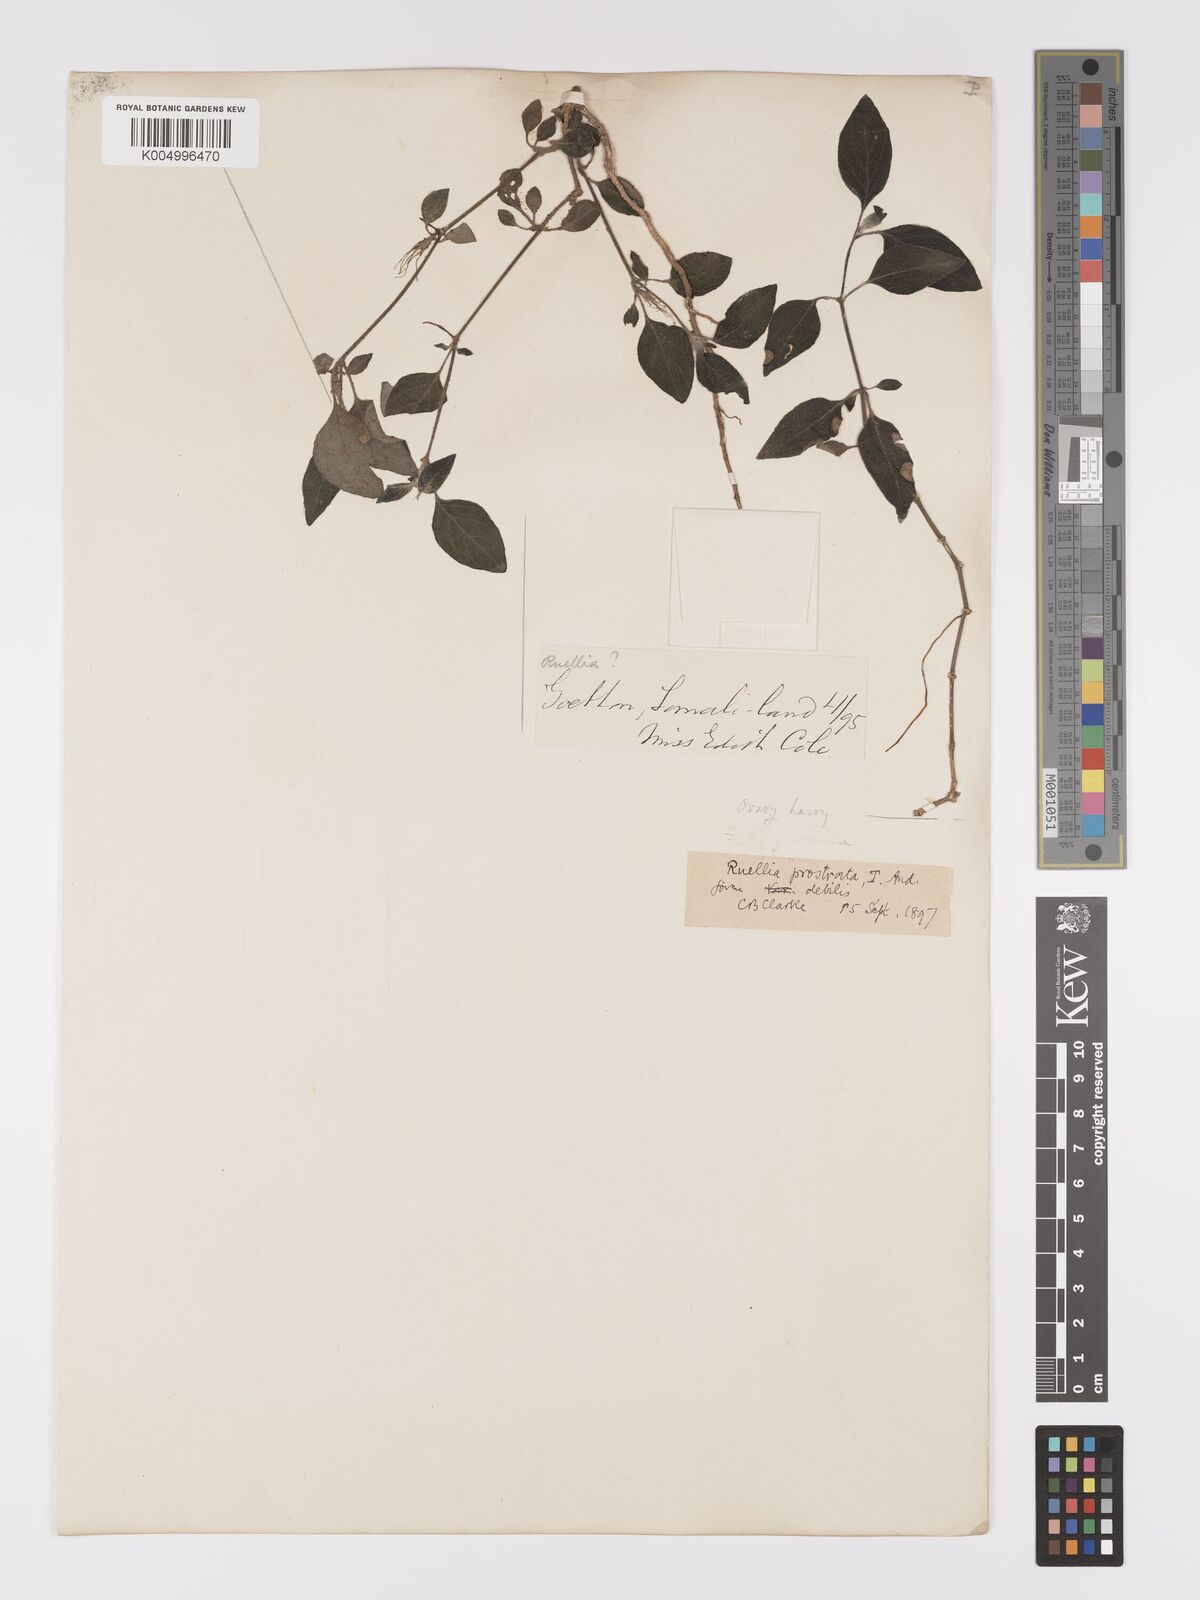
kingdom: Plantae
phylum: Tracheophyta
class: Magnoliopsida
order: Lamiales
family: Acanthaceae
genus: Ruellia
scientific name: Ruellia
